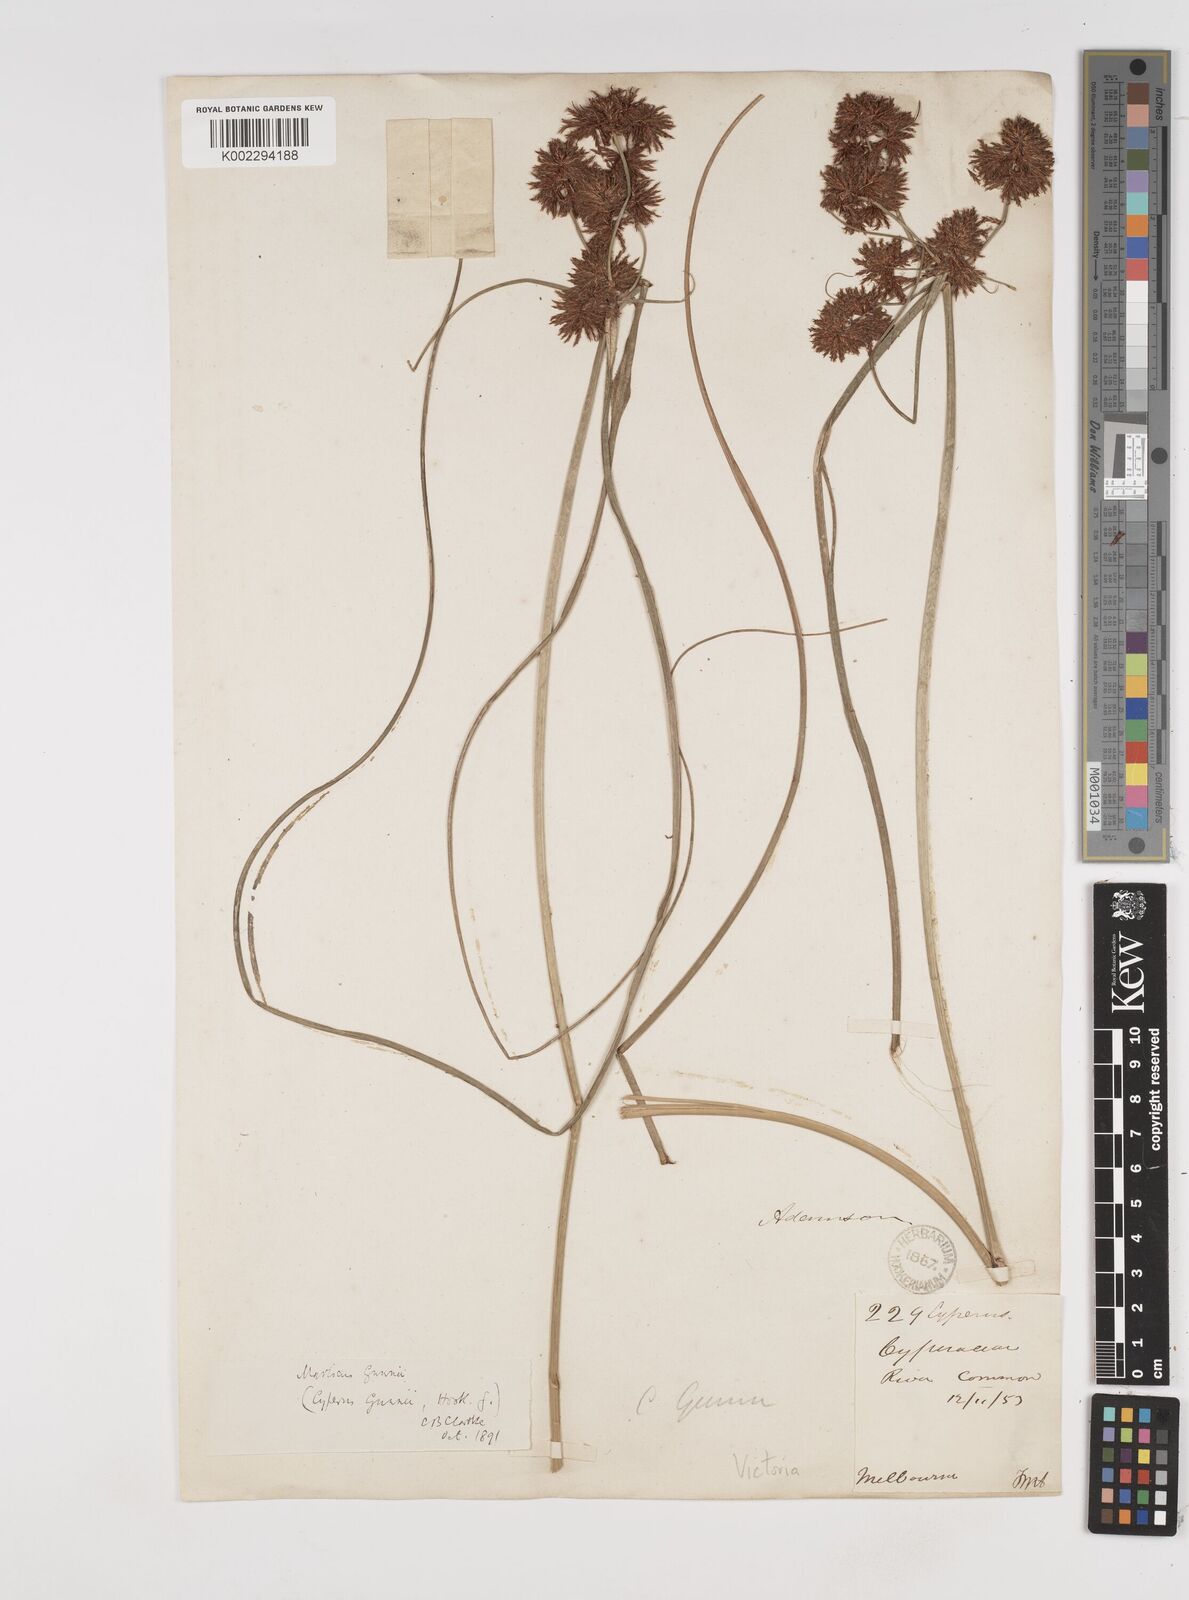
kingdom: Plantae
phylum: Tracheophyta
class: Liliopsida
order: Poales
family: Cyperaceae
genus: Cyperus
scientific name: Cyperus gunnii
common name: Flecked flat-sedge
